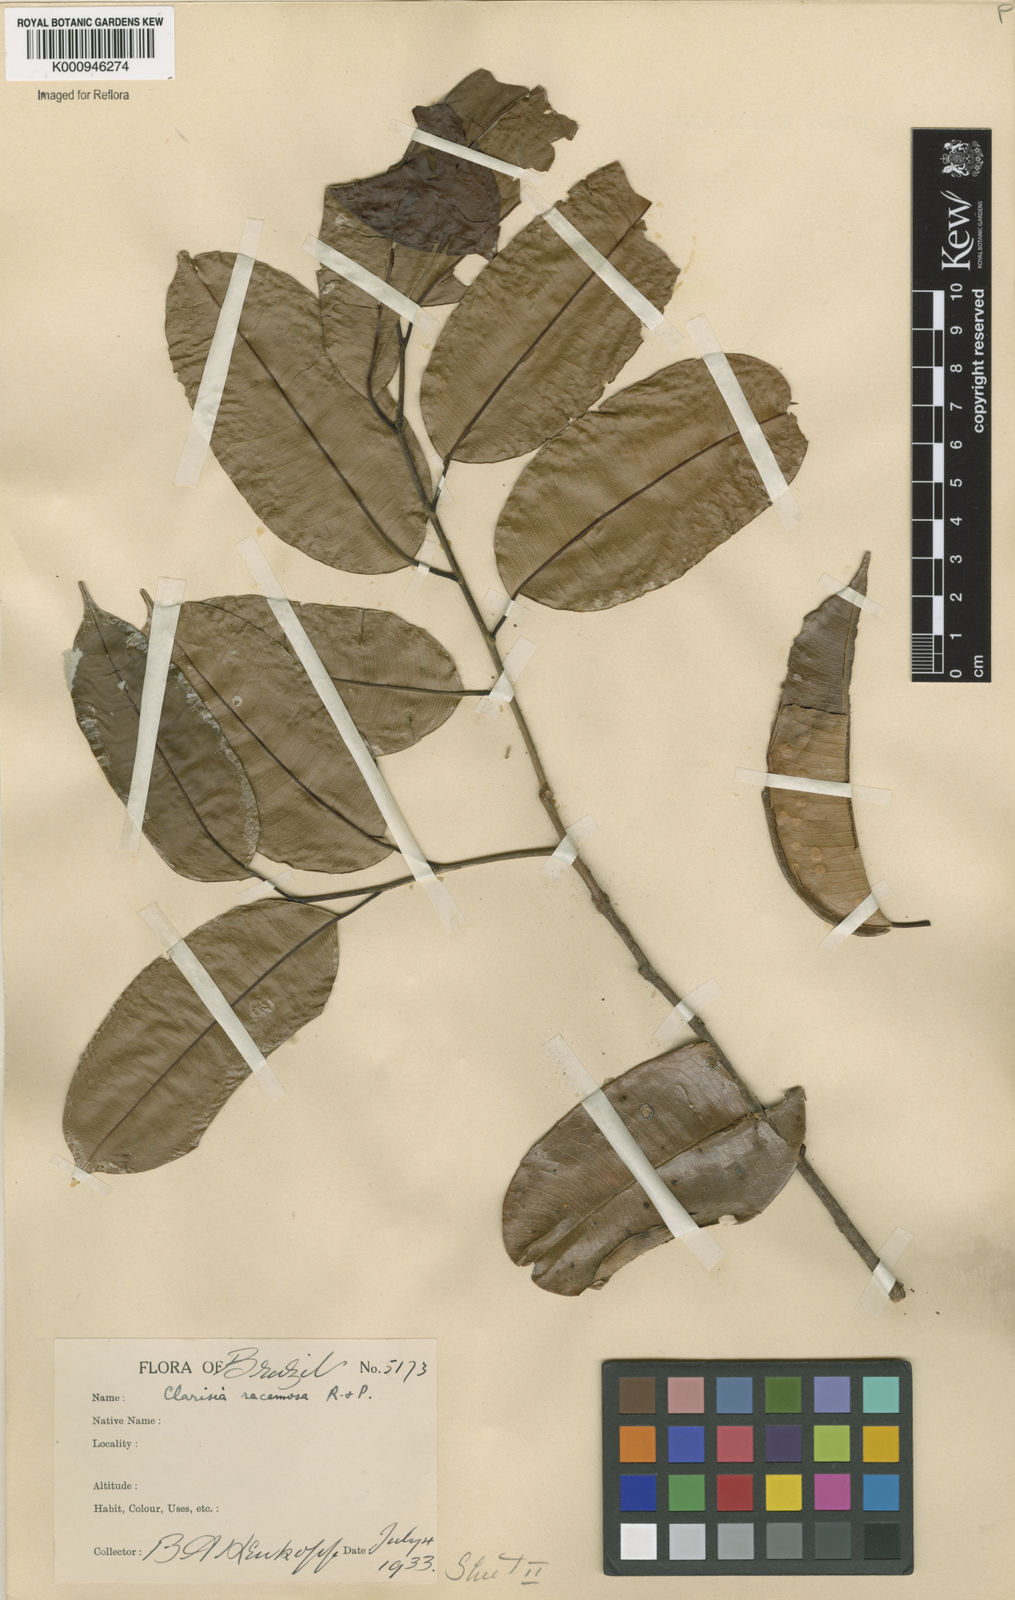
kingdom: Plantae
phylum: Tracheophyta
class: Magnoliopsida
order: Rosales
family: Moraceae
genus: Clarisia
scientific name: Clarisia racemosa
